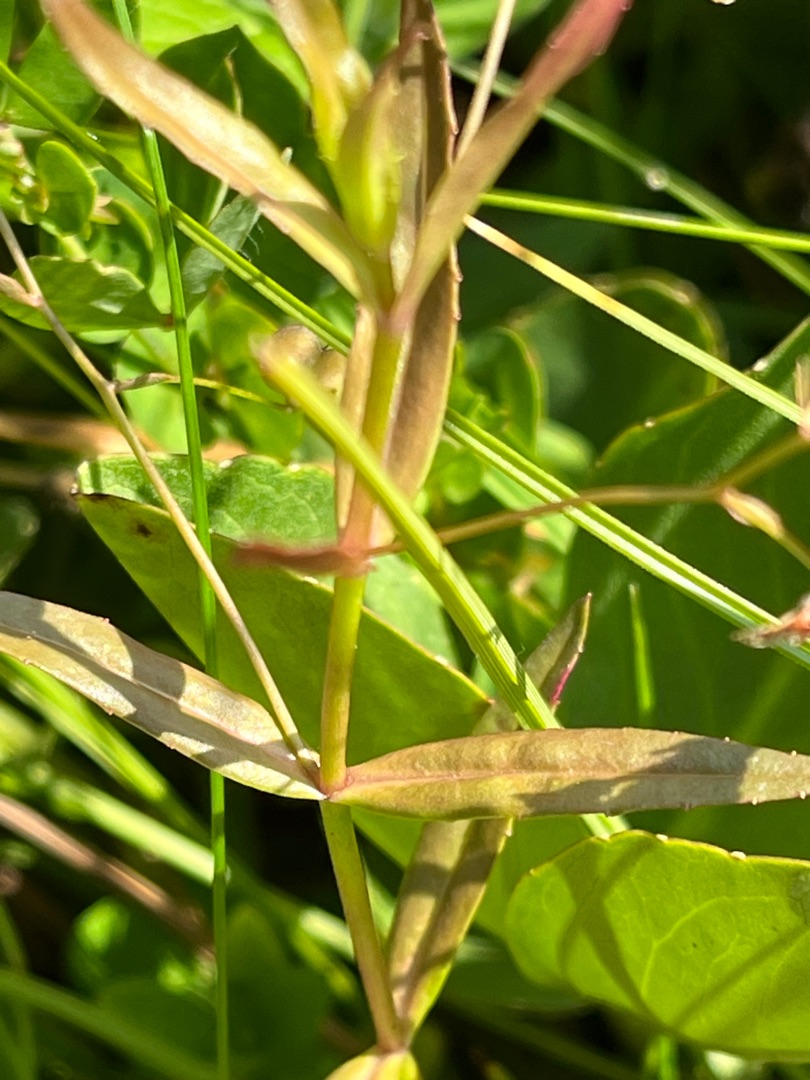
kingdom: Plantae
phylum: Tracheophyta
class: Magnoliopsida
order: Lamiales
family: Plantaginaceae
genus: Veronica
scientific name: Veronica scutellata
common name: Smalbladet ærenpris
